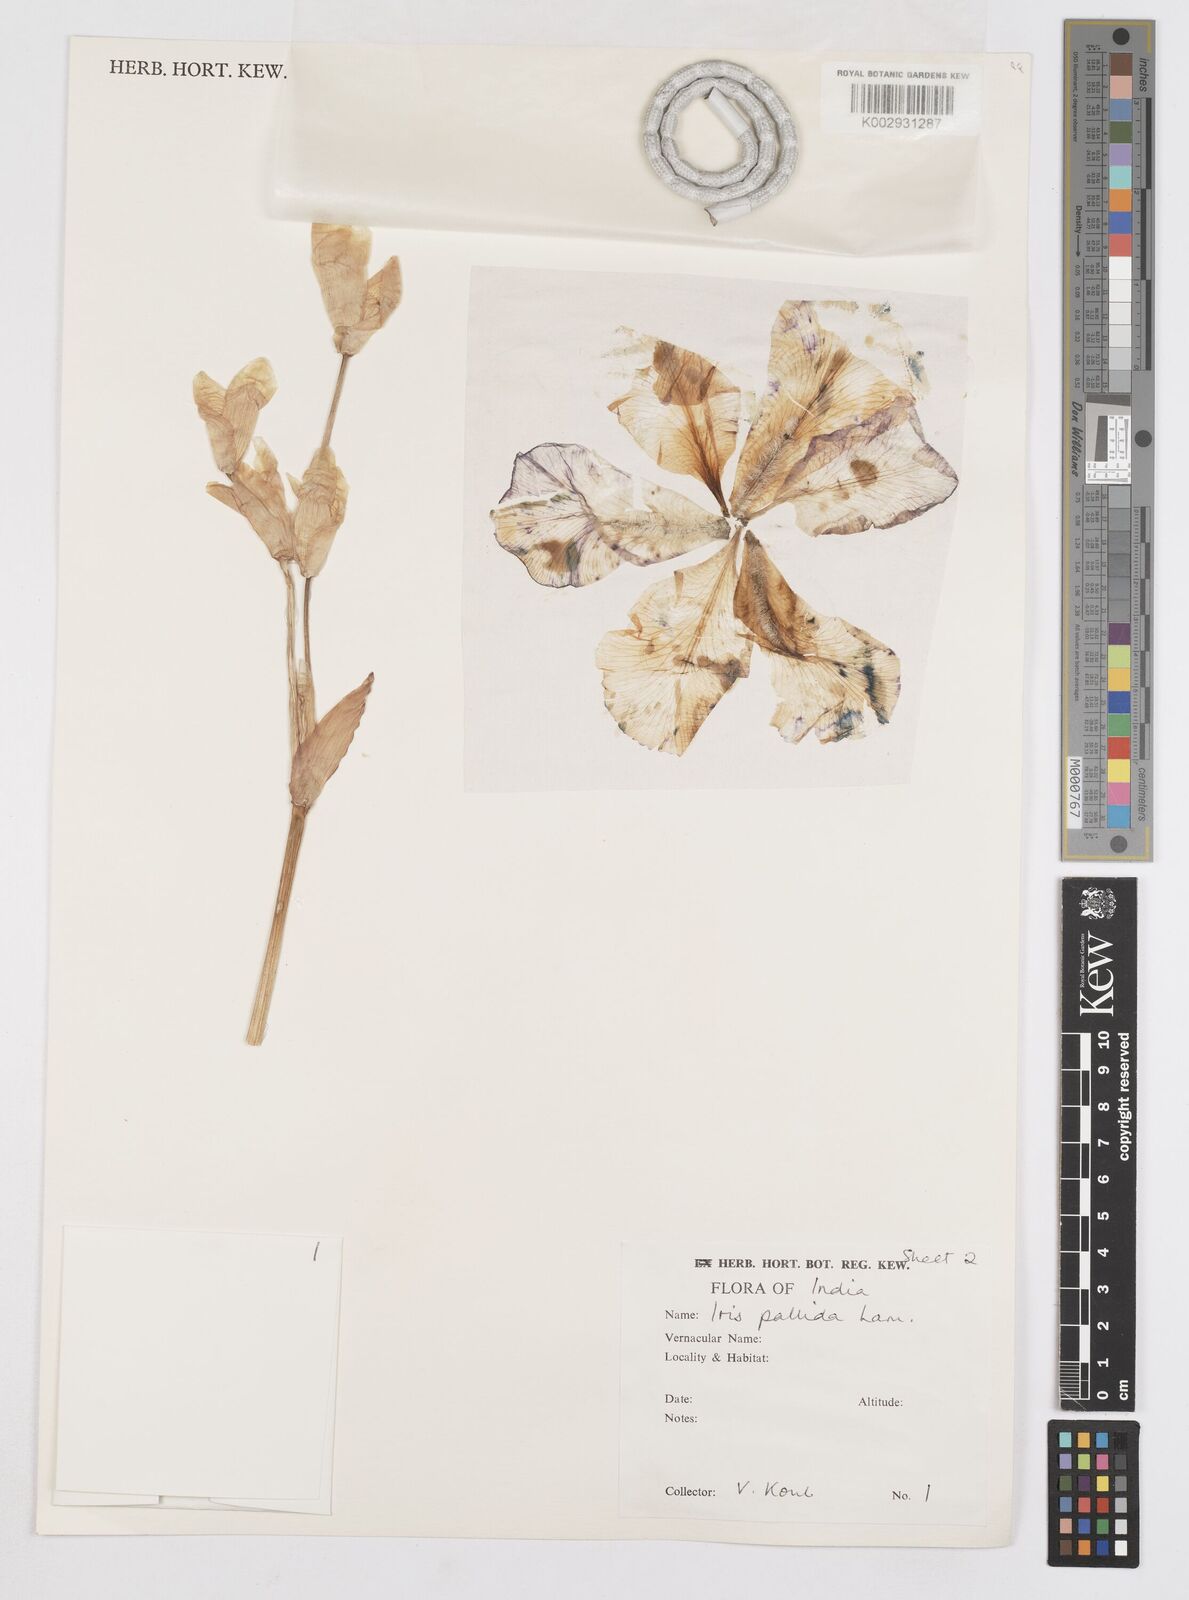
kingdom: Plantae
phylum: Tracheophyta
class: Liliopsida
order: Asparagales
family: Iridaceae
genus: Iris
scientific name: Iris pallida
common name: Sweet iris
